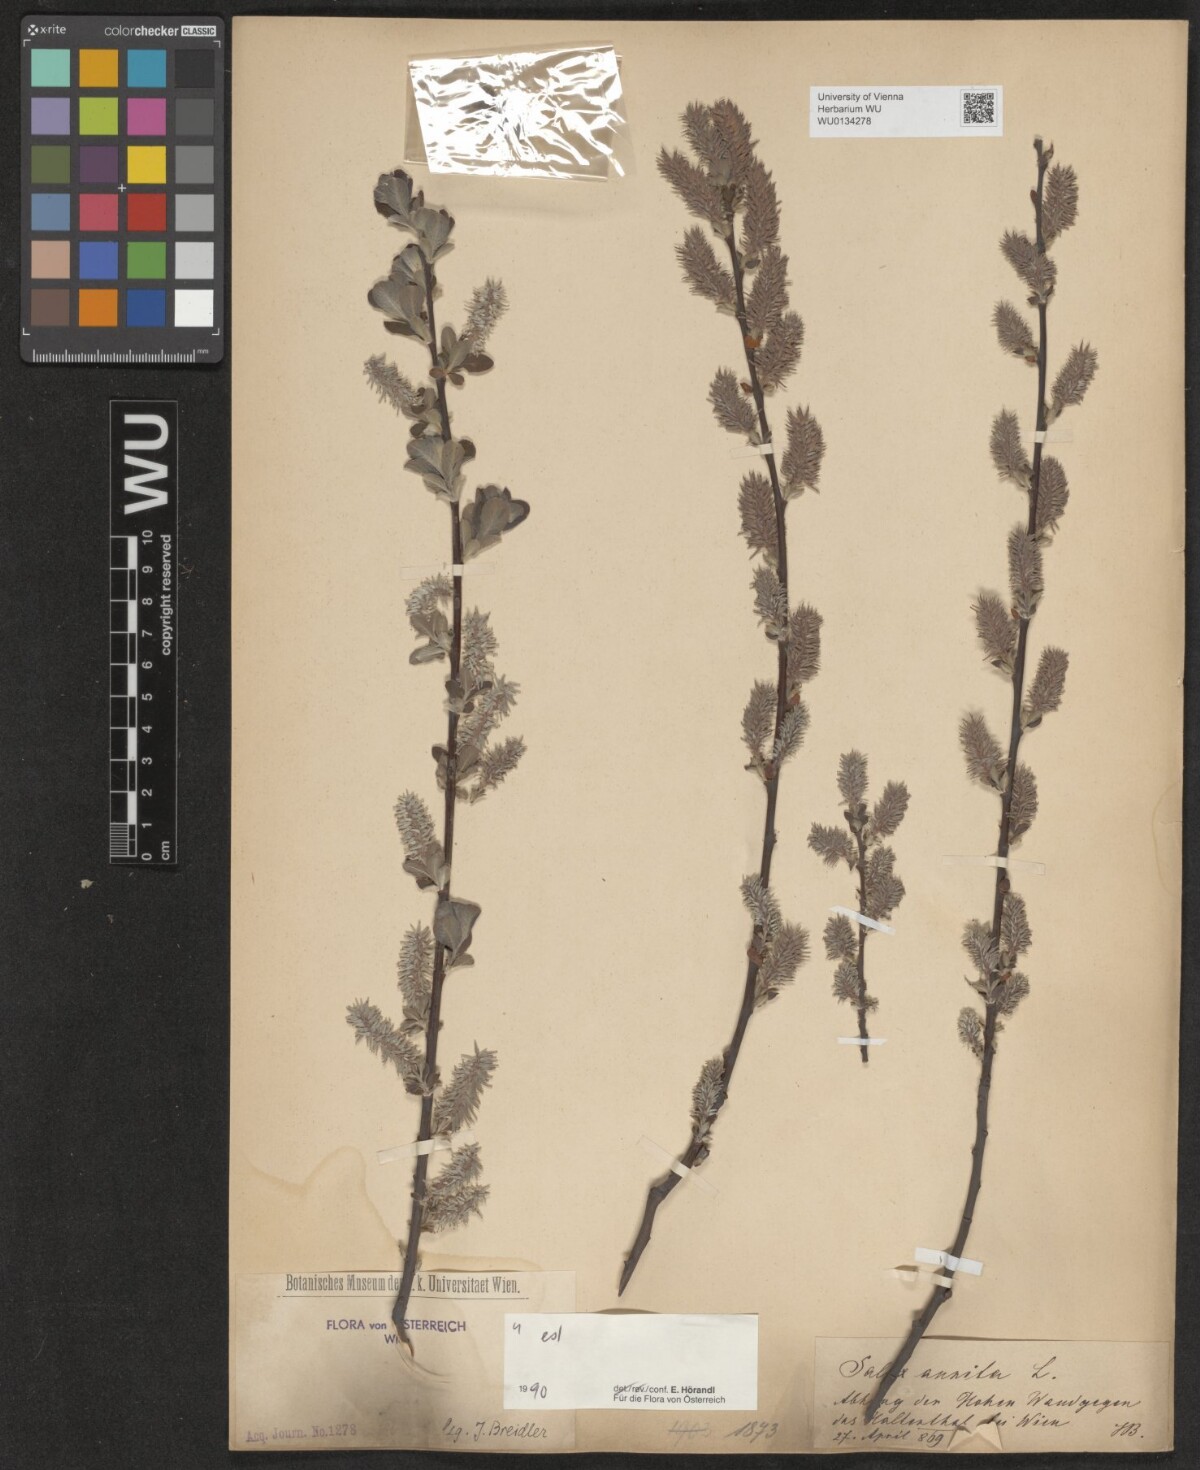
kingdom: Plantae
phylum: Tracheophyta
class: Magnoliopsida
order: Malpighiales
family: Salicaceae
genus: Salix
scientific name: Salix aurita
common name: Eared willow
